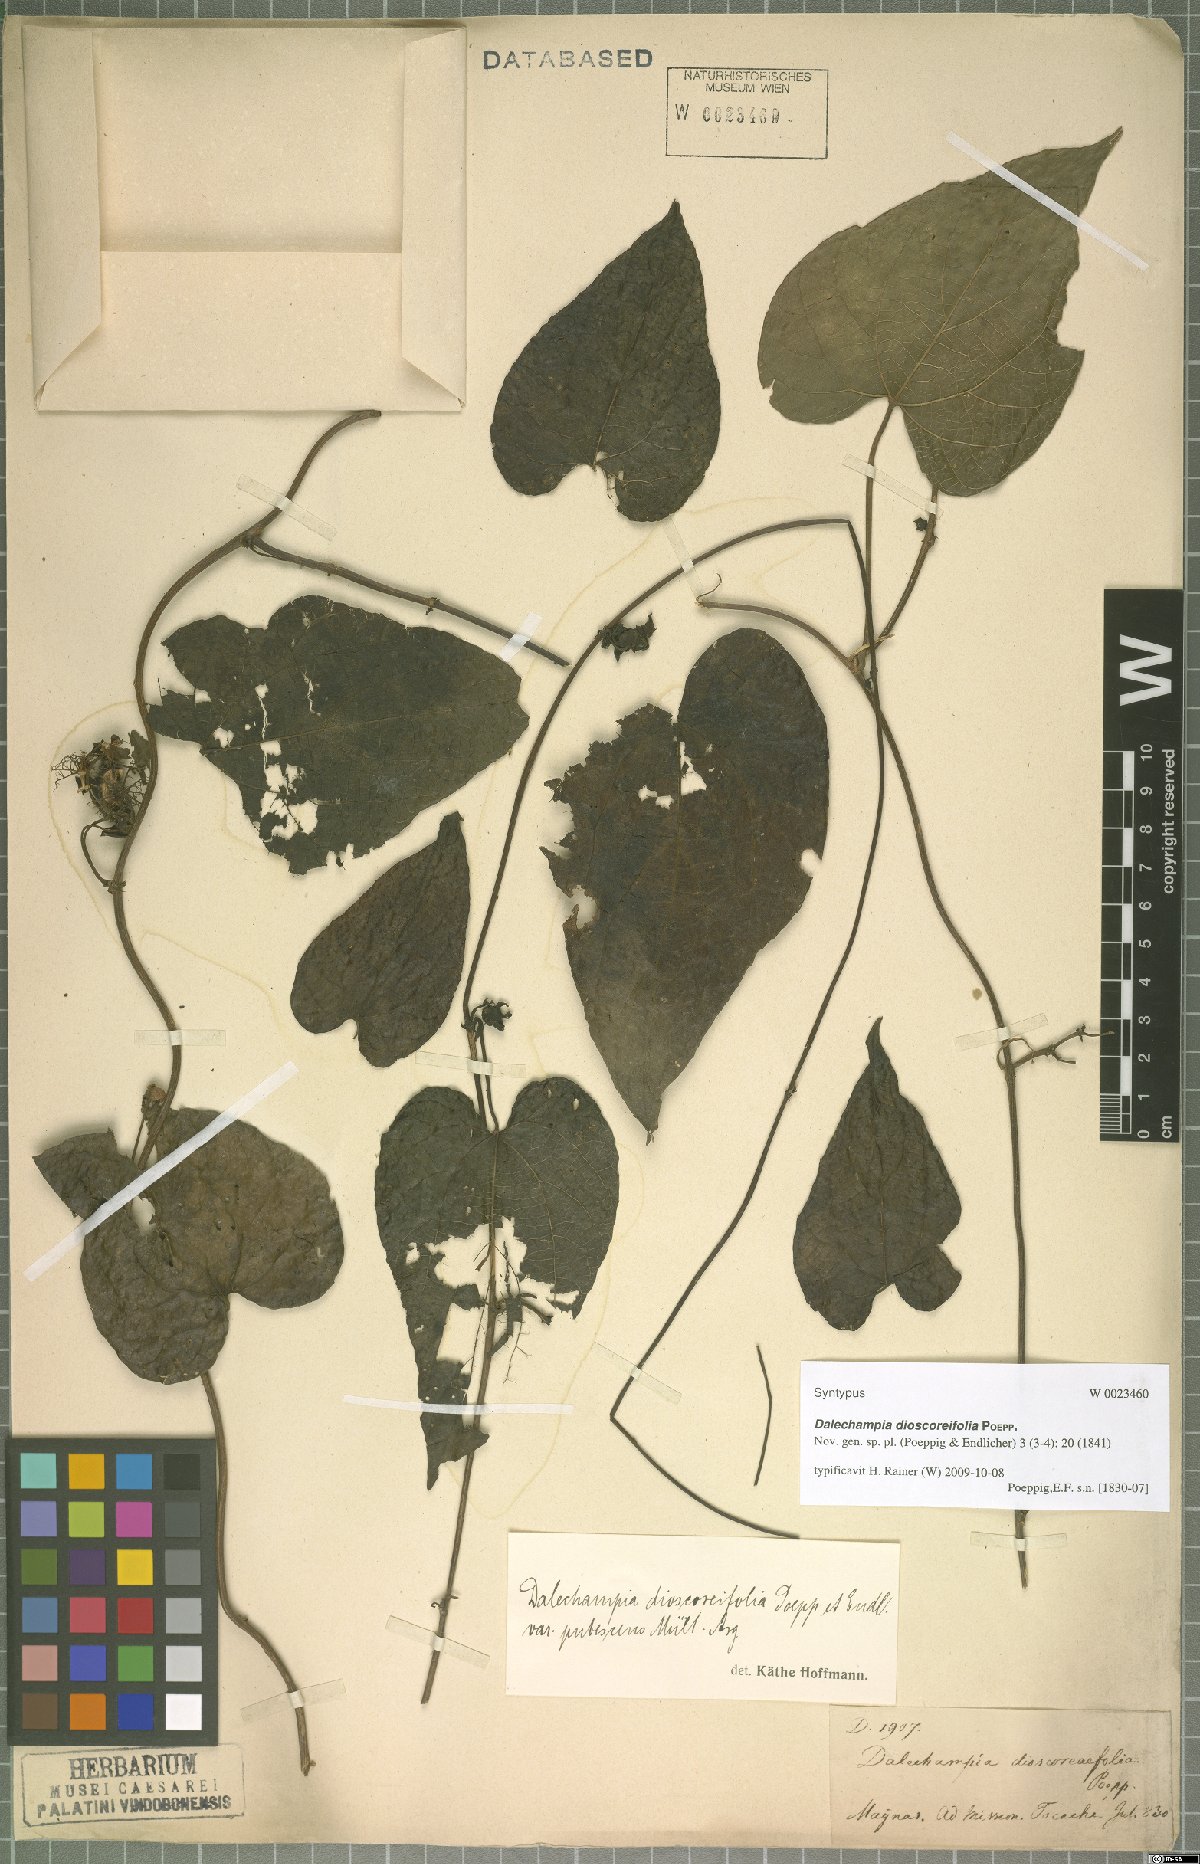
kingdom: Plantae
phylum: Tracheophyta
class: Magnoliopsida
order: Malpighiales
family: Euphorbiaceae
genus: Dalechampia
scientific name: Dalechampia dioscoreifolia
